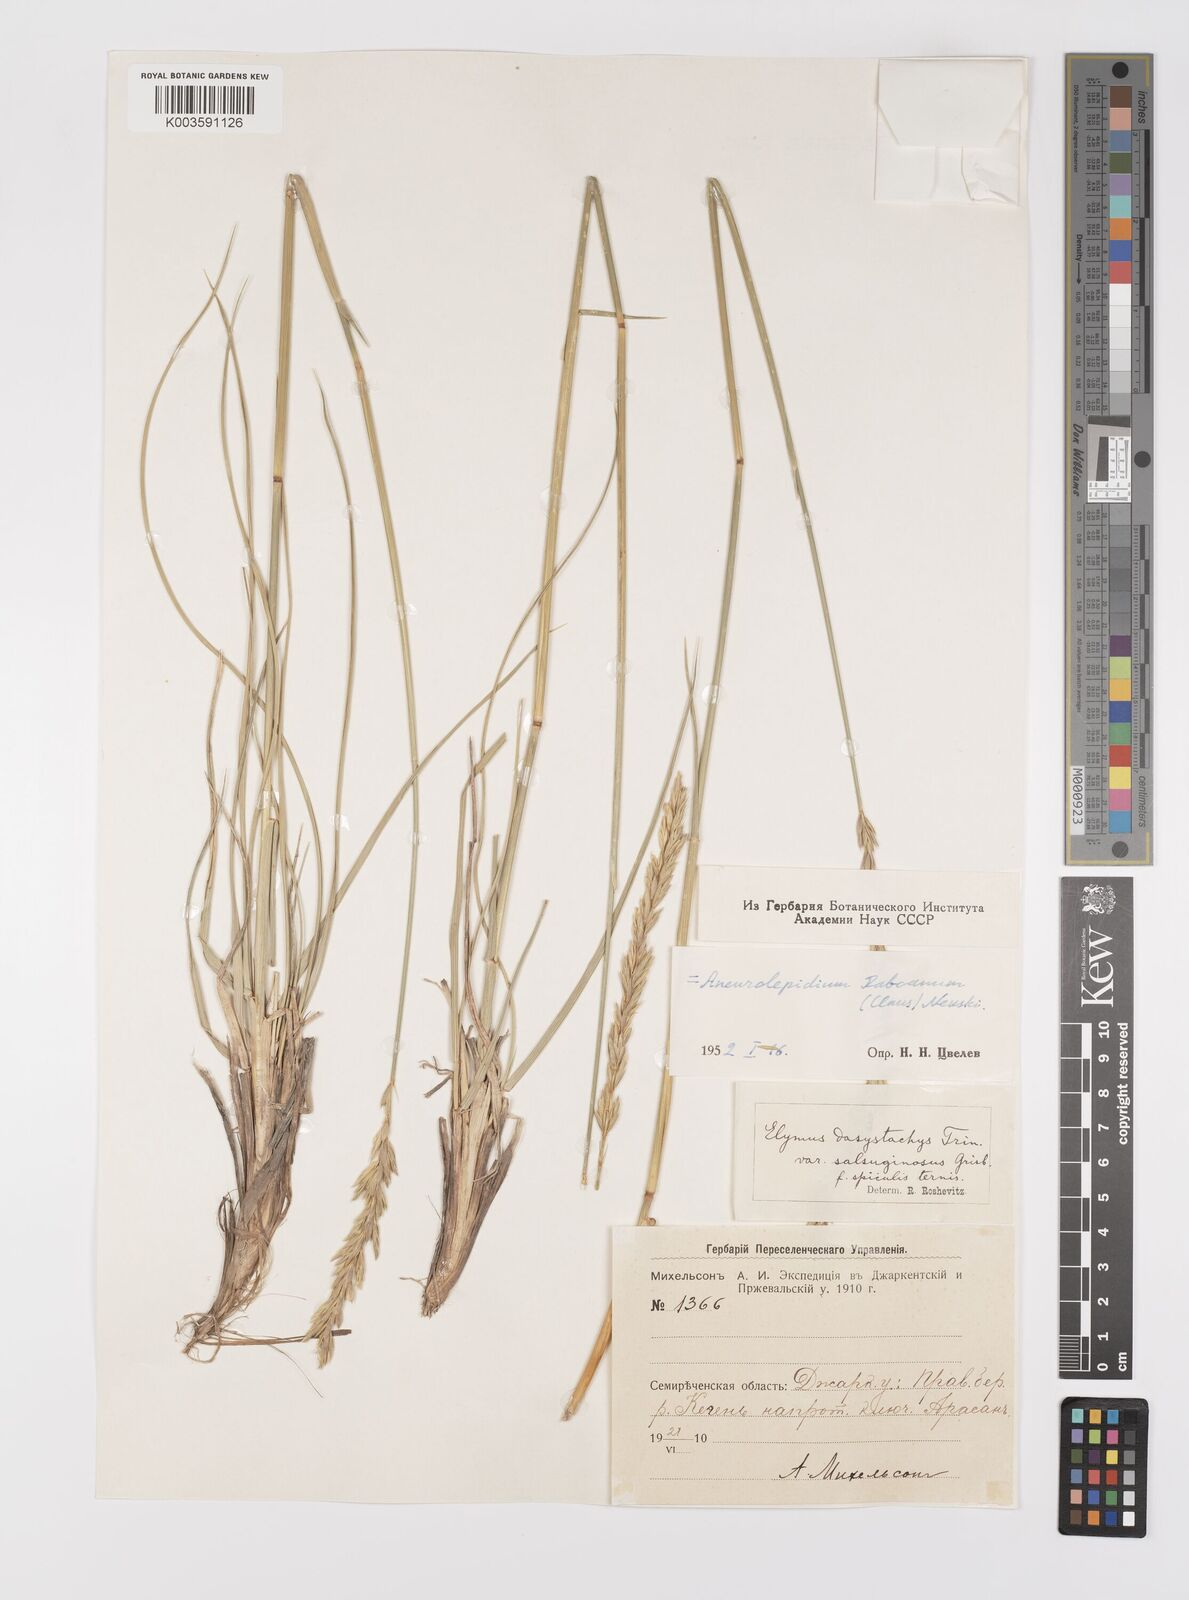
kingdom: Plantae
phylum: Tracheophyta
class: Liliopsida
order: Poales
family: Poaceae
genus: Leymus
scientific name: Leymus secalinus
